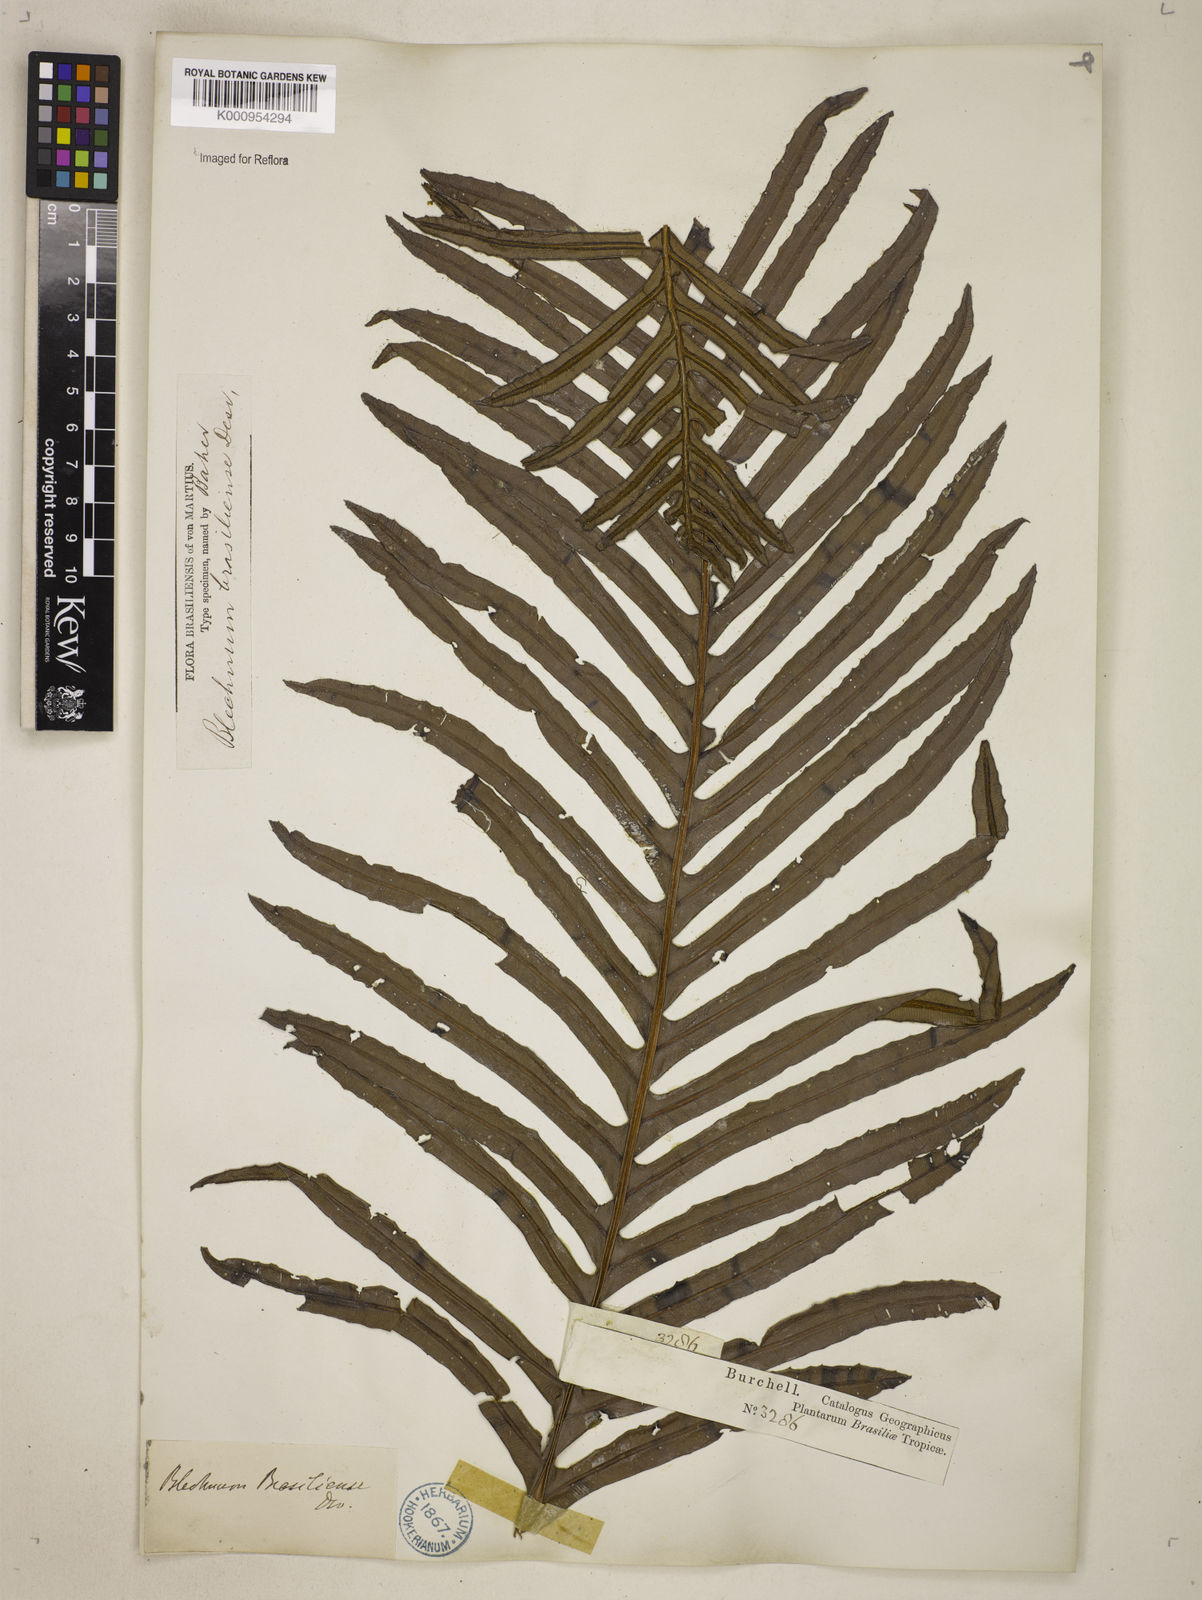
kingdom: Plantae
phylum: Tracheophyta
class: Polypodiopsida
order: Polypodiales
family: Blechnaceae
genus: Neoblechnum
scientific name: Neoblechnum brasiliense
